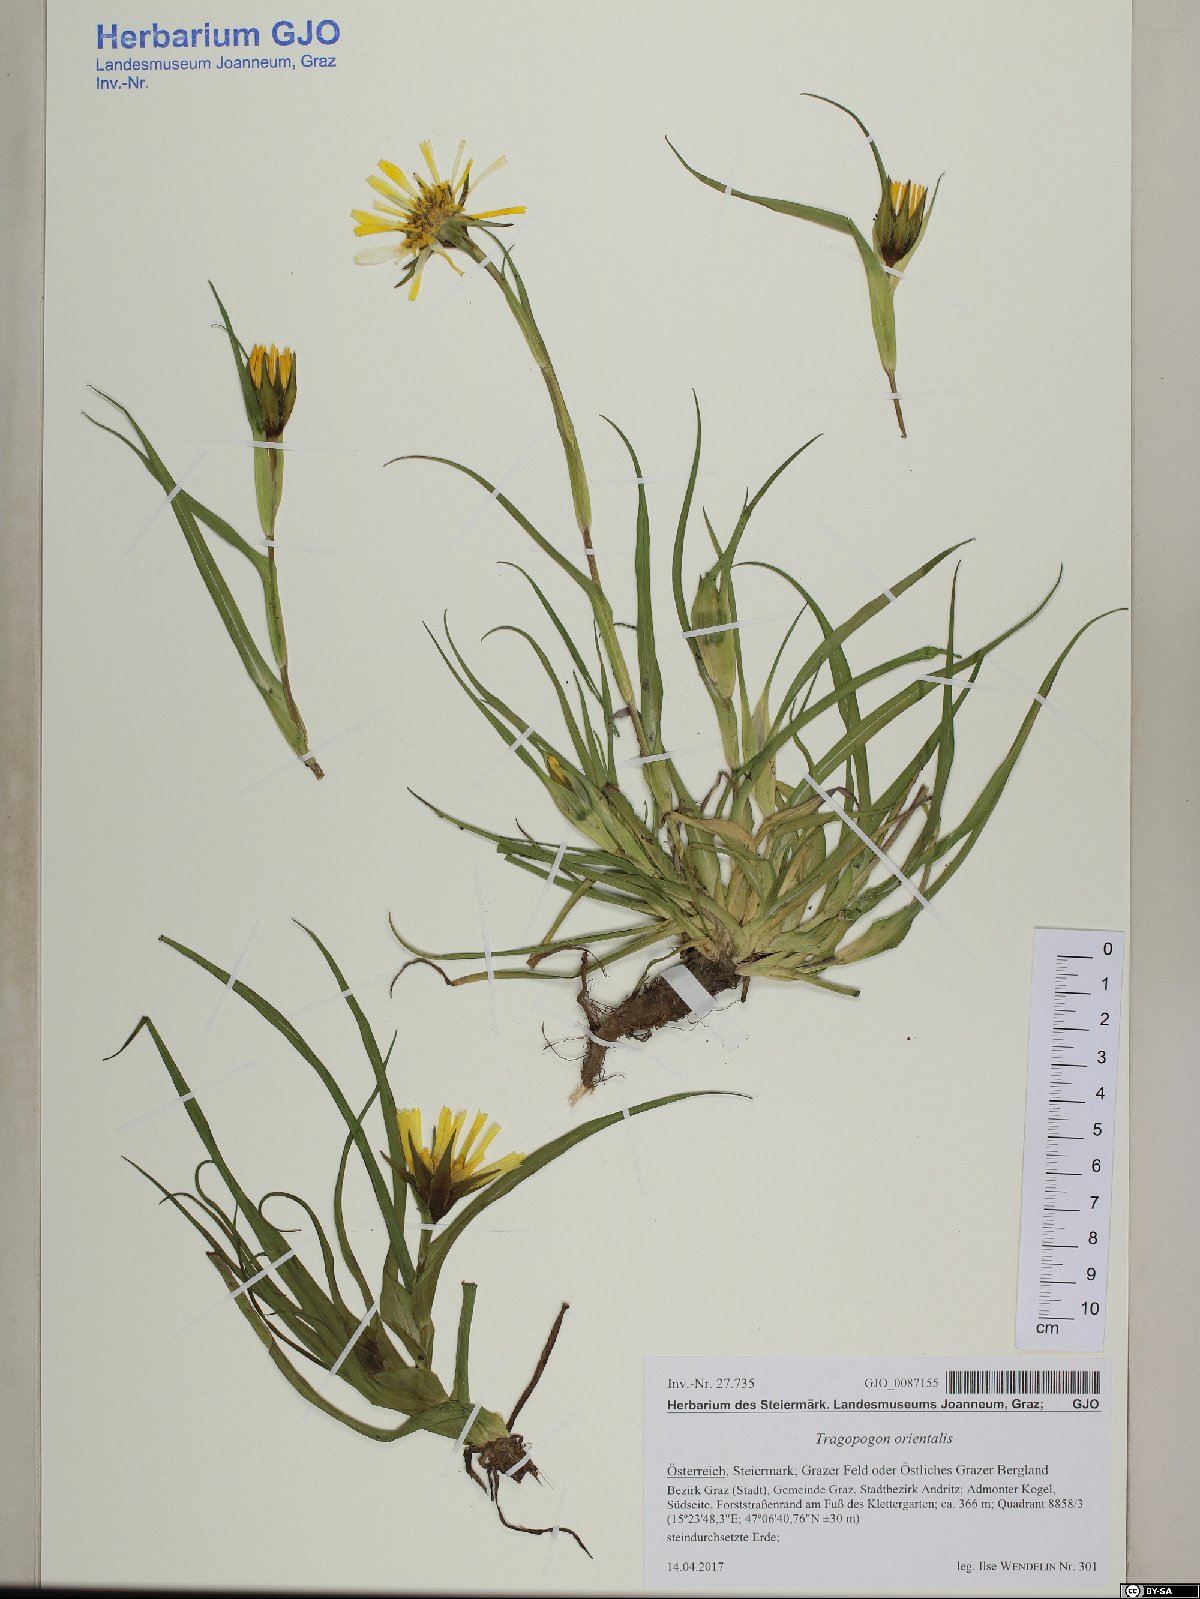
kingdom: Plantae
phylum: Tracheophyta
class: Magnoliopsida
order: Asterales
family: Asteraceae
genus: Tragopogon
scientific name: Tragopogon orientalis
